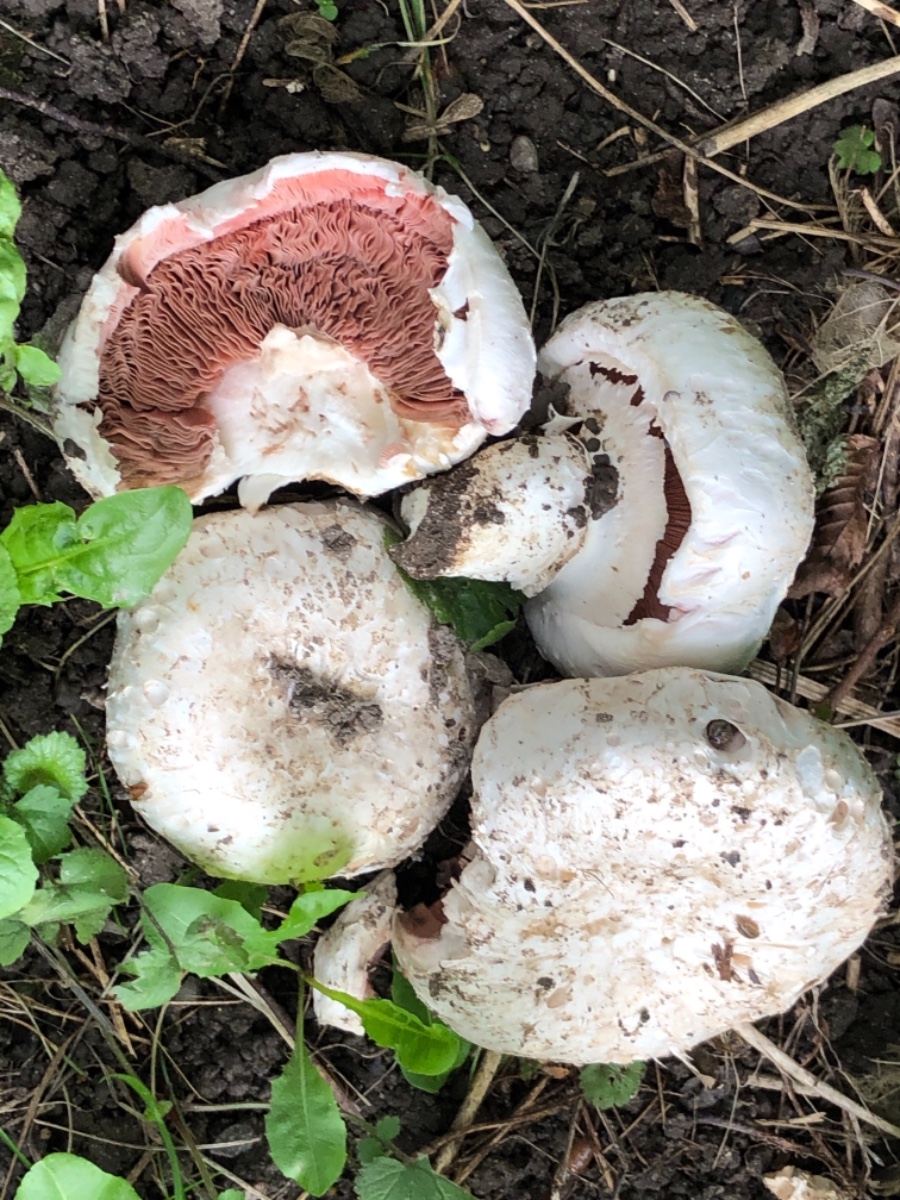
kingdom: Fungi
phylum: Basidiomycota
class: Agaricomycetes
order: Agaricales
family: Agaricaceae
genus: Agaricus
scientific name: Agaricus subperonatus
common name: knippe-champignon
